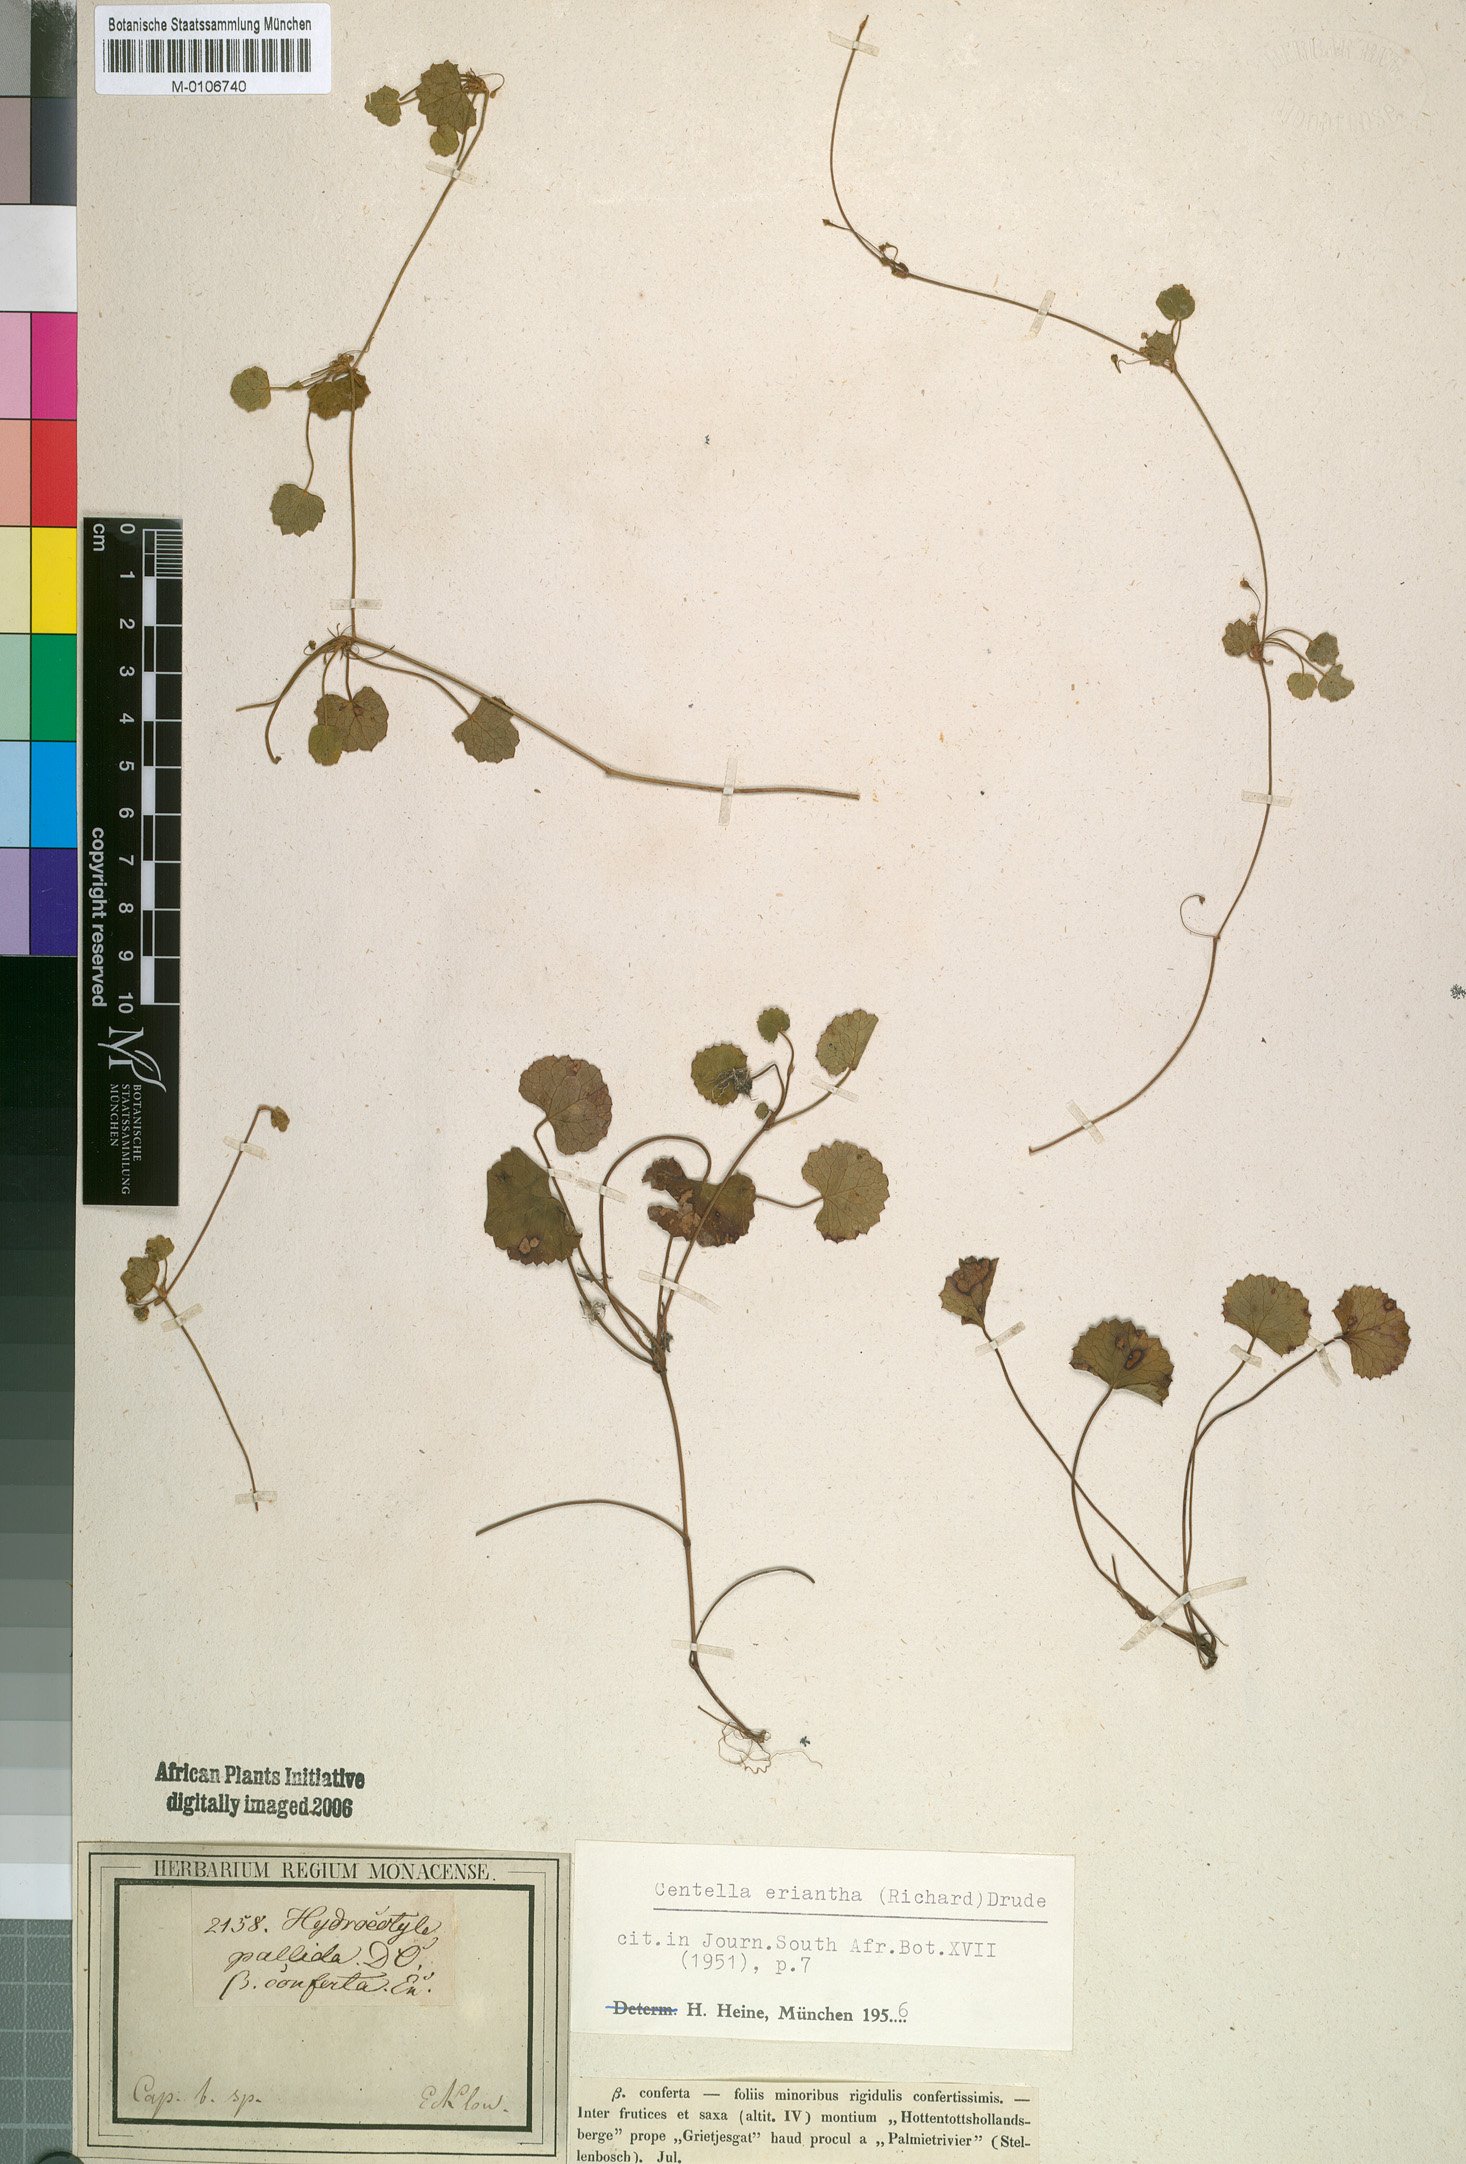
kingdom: Plantae
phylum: Tracheophyta
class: Magnoliopsida
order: Apiales
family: Apiaceae
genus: Centella
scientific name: Centella eriantha
